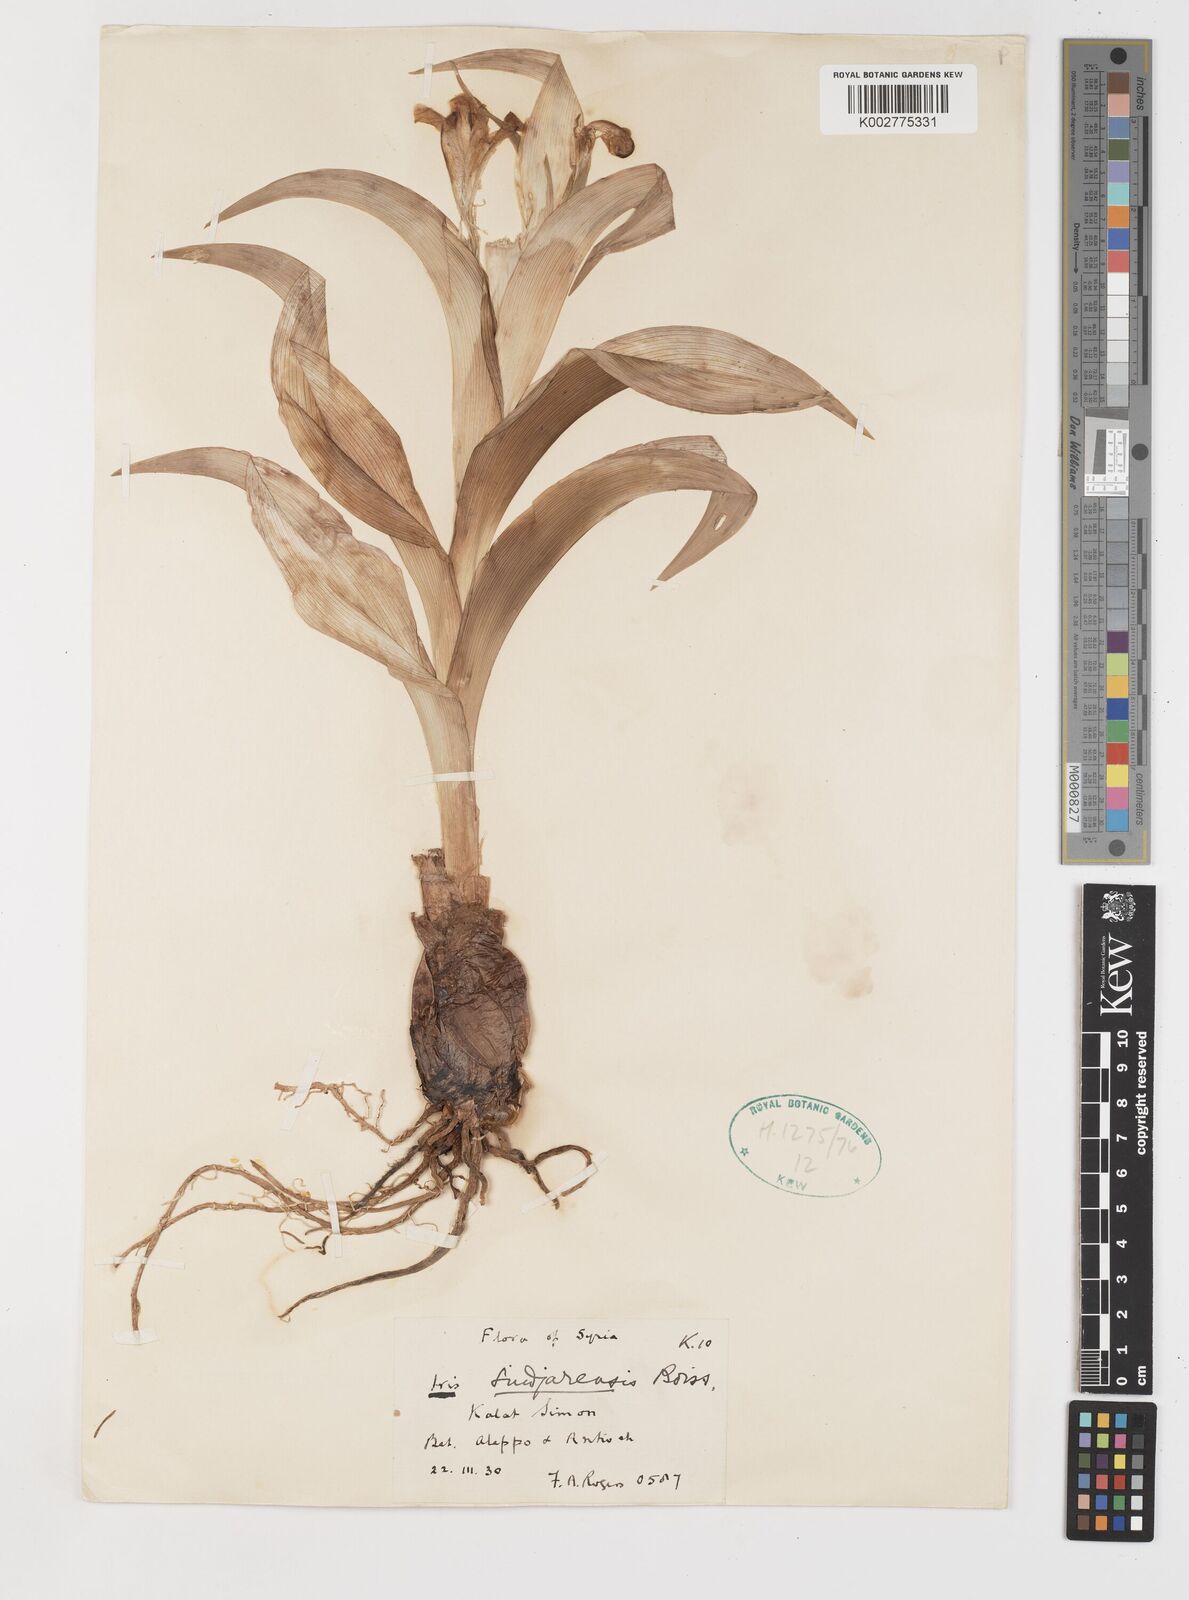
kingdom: Plantae
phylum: Tracheophyta
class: Liliopsida
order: Asparagales
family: Iridaceae
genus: Iris
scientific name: Iris aucheri
